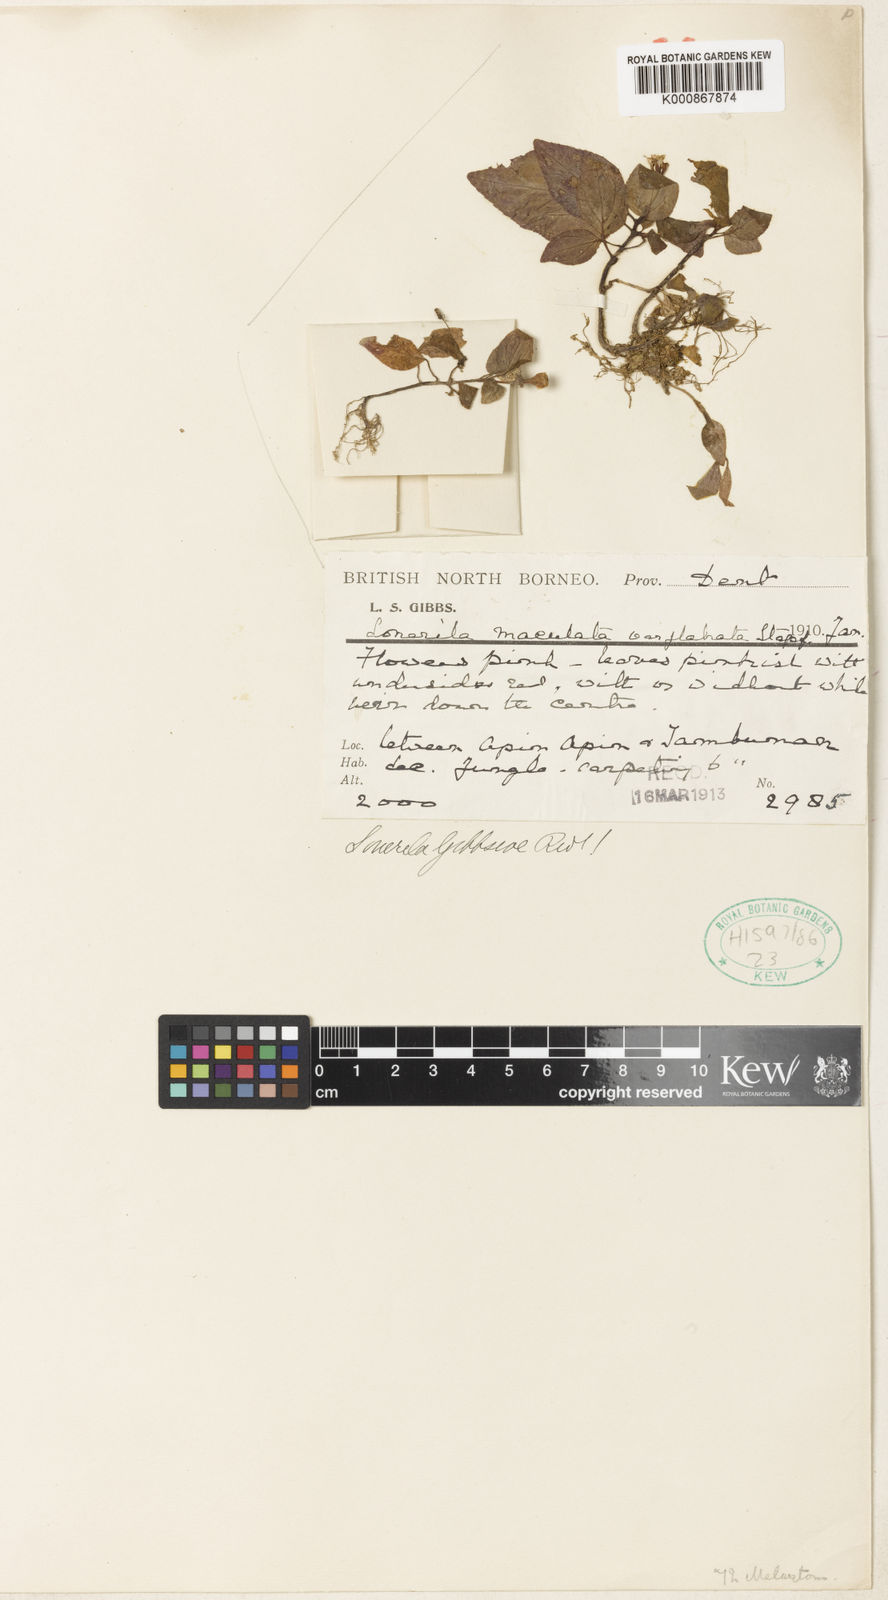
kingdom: Plantae
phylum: Tracheophyta
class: Magnoliopsida
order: Myrtales
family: Melastomataceae
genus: Sonerila
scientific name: Sonerila maculata
